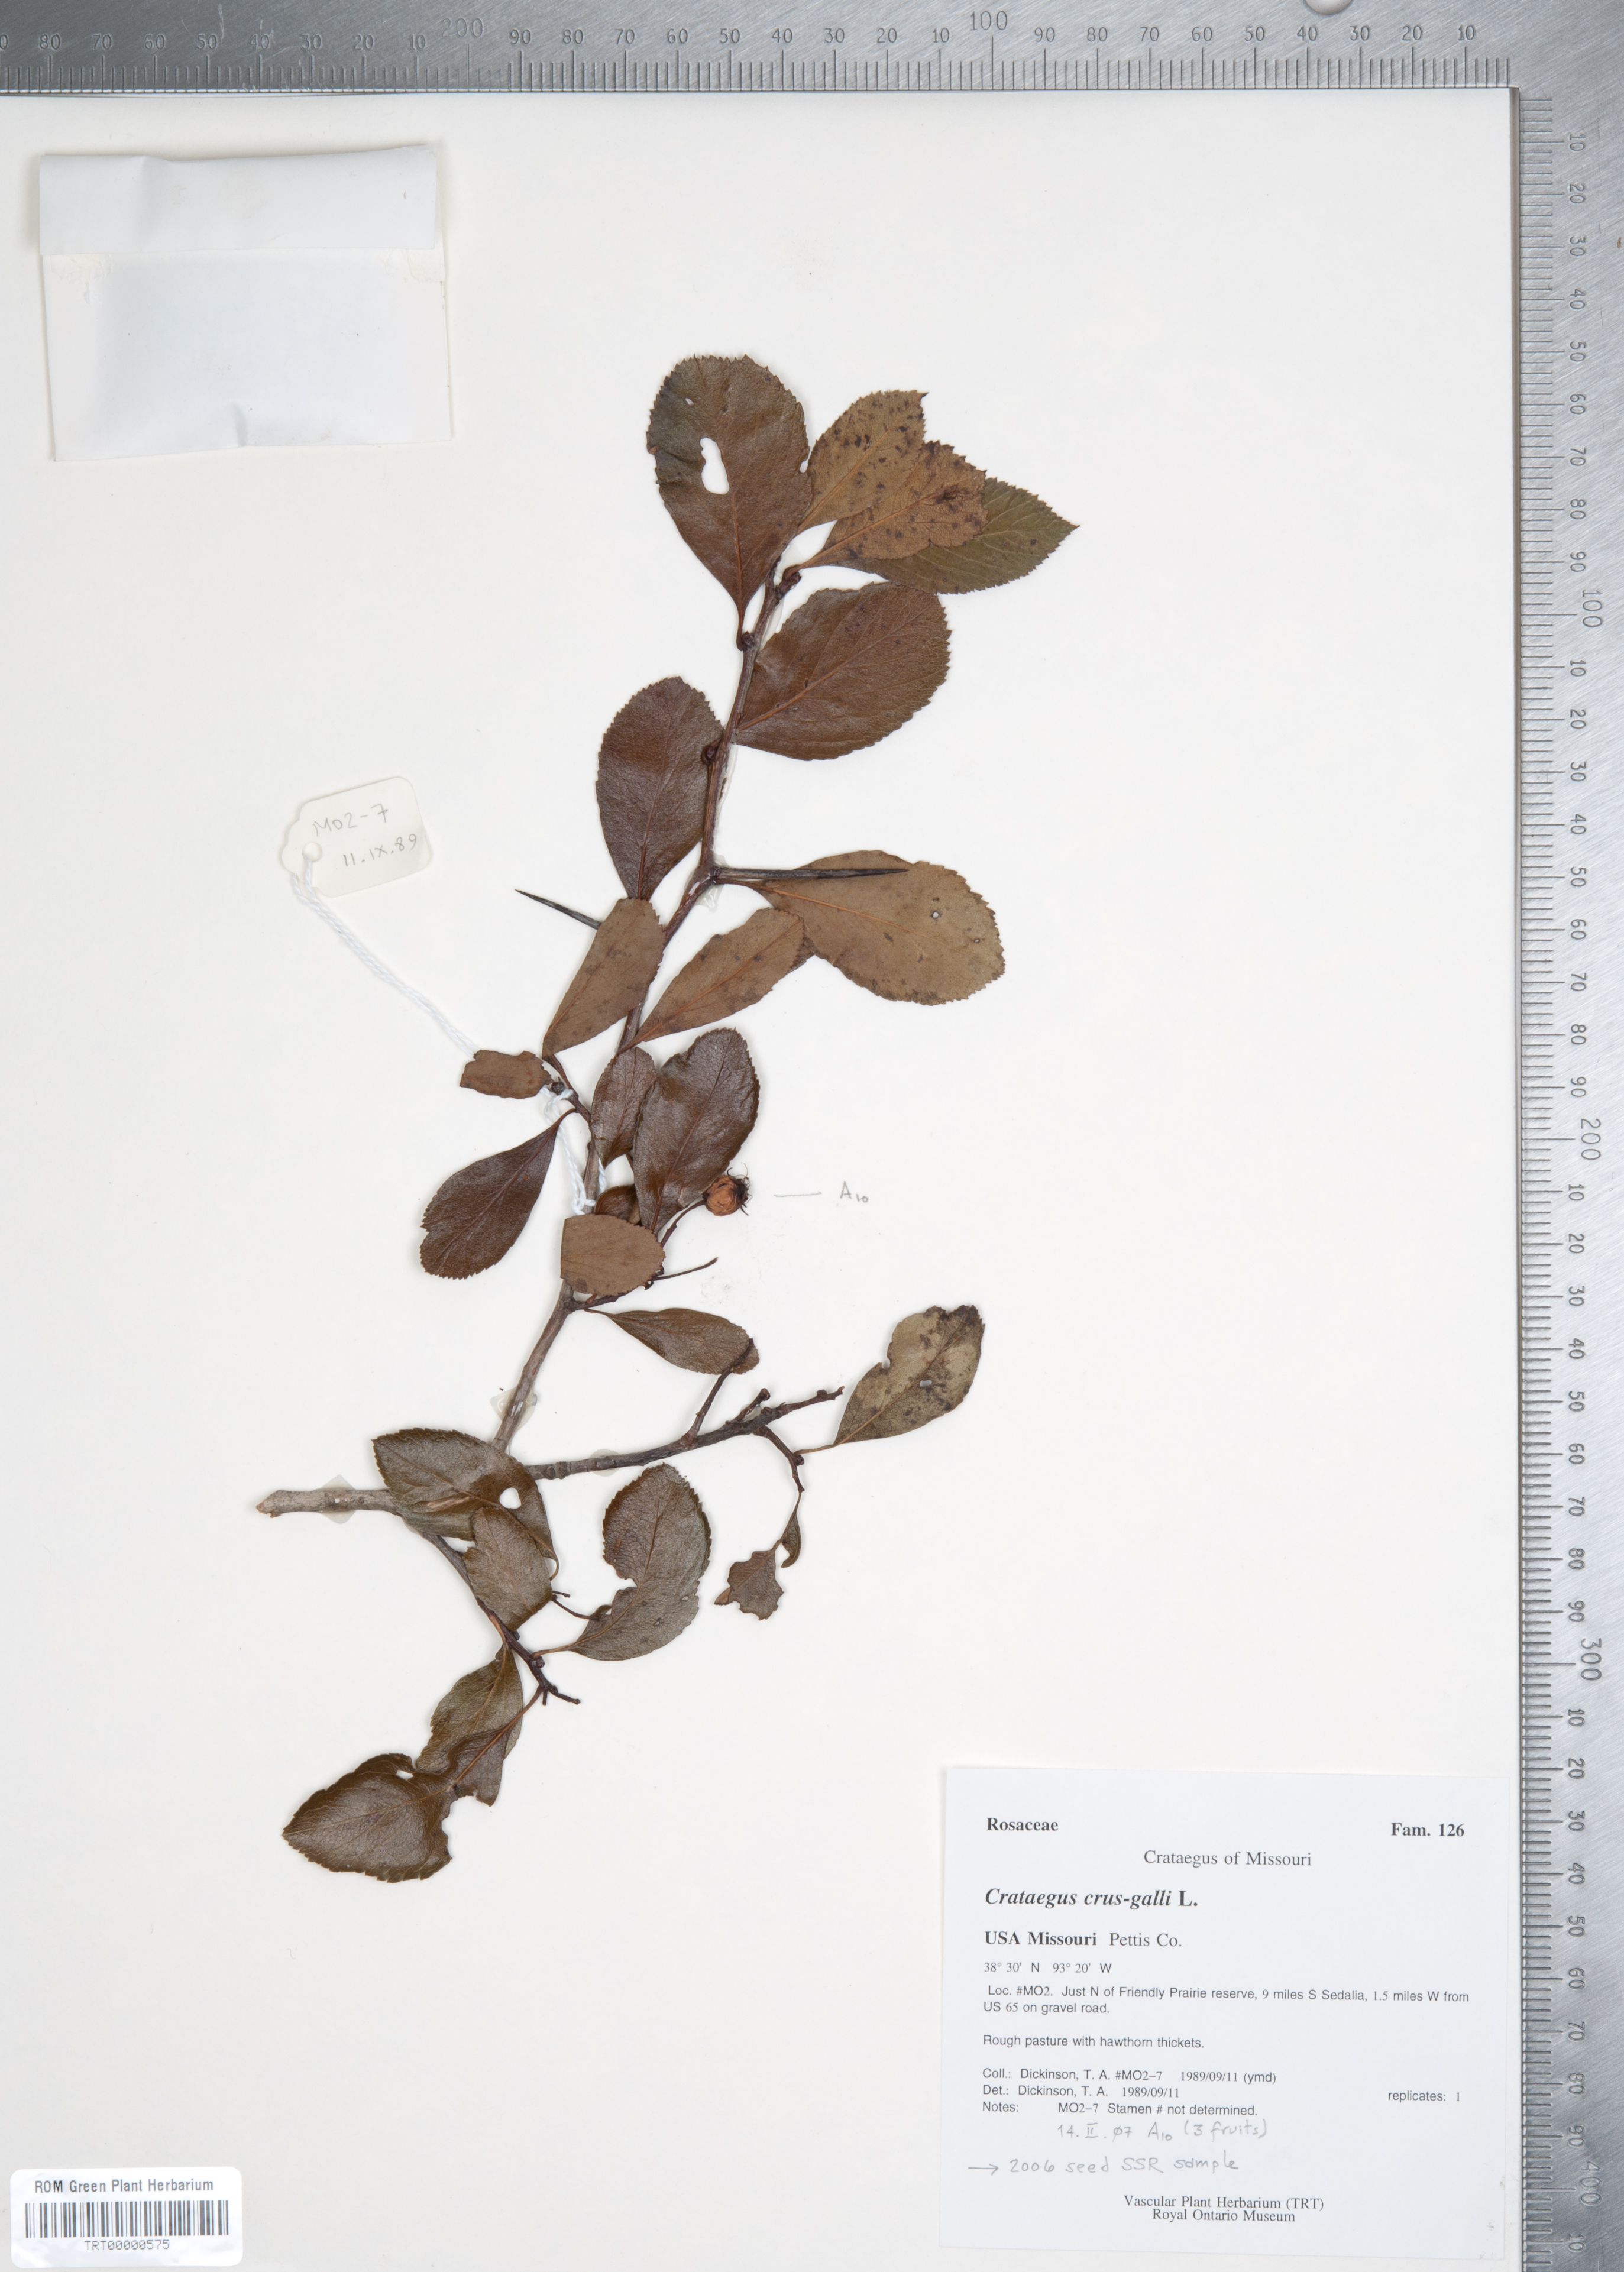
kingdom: Plantae
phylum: Tracheophyta
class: Magnoliopsida
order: Rosales
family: Rosaceae
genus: Crataegus
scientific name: Crataegus crus-galli
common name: Cockspurthorn
